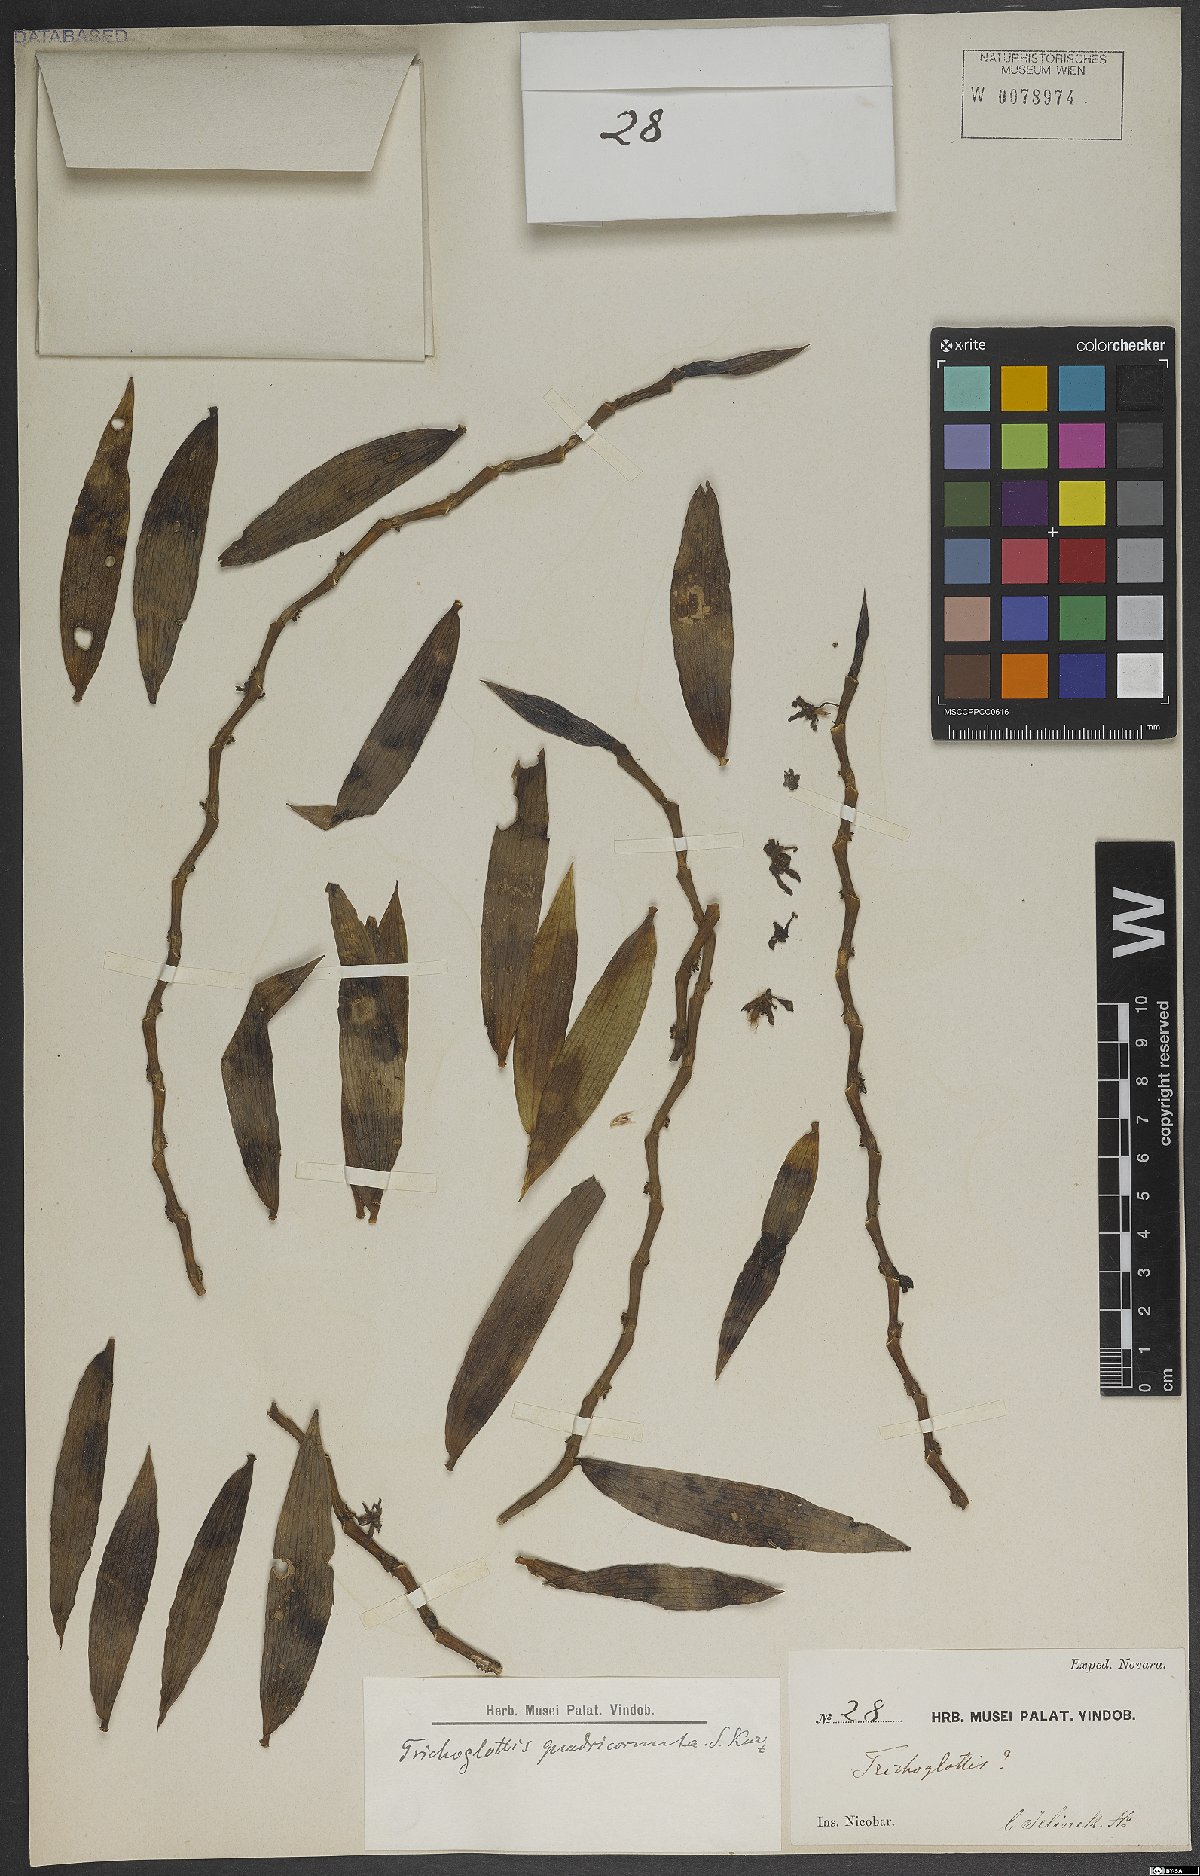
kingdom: Plantae
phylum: Tracheophyta
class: Liliopsida
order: Asparagales
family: Orchidaceae
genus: Trichoglottis
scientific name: Trichoglottis orchidea
